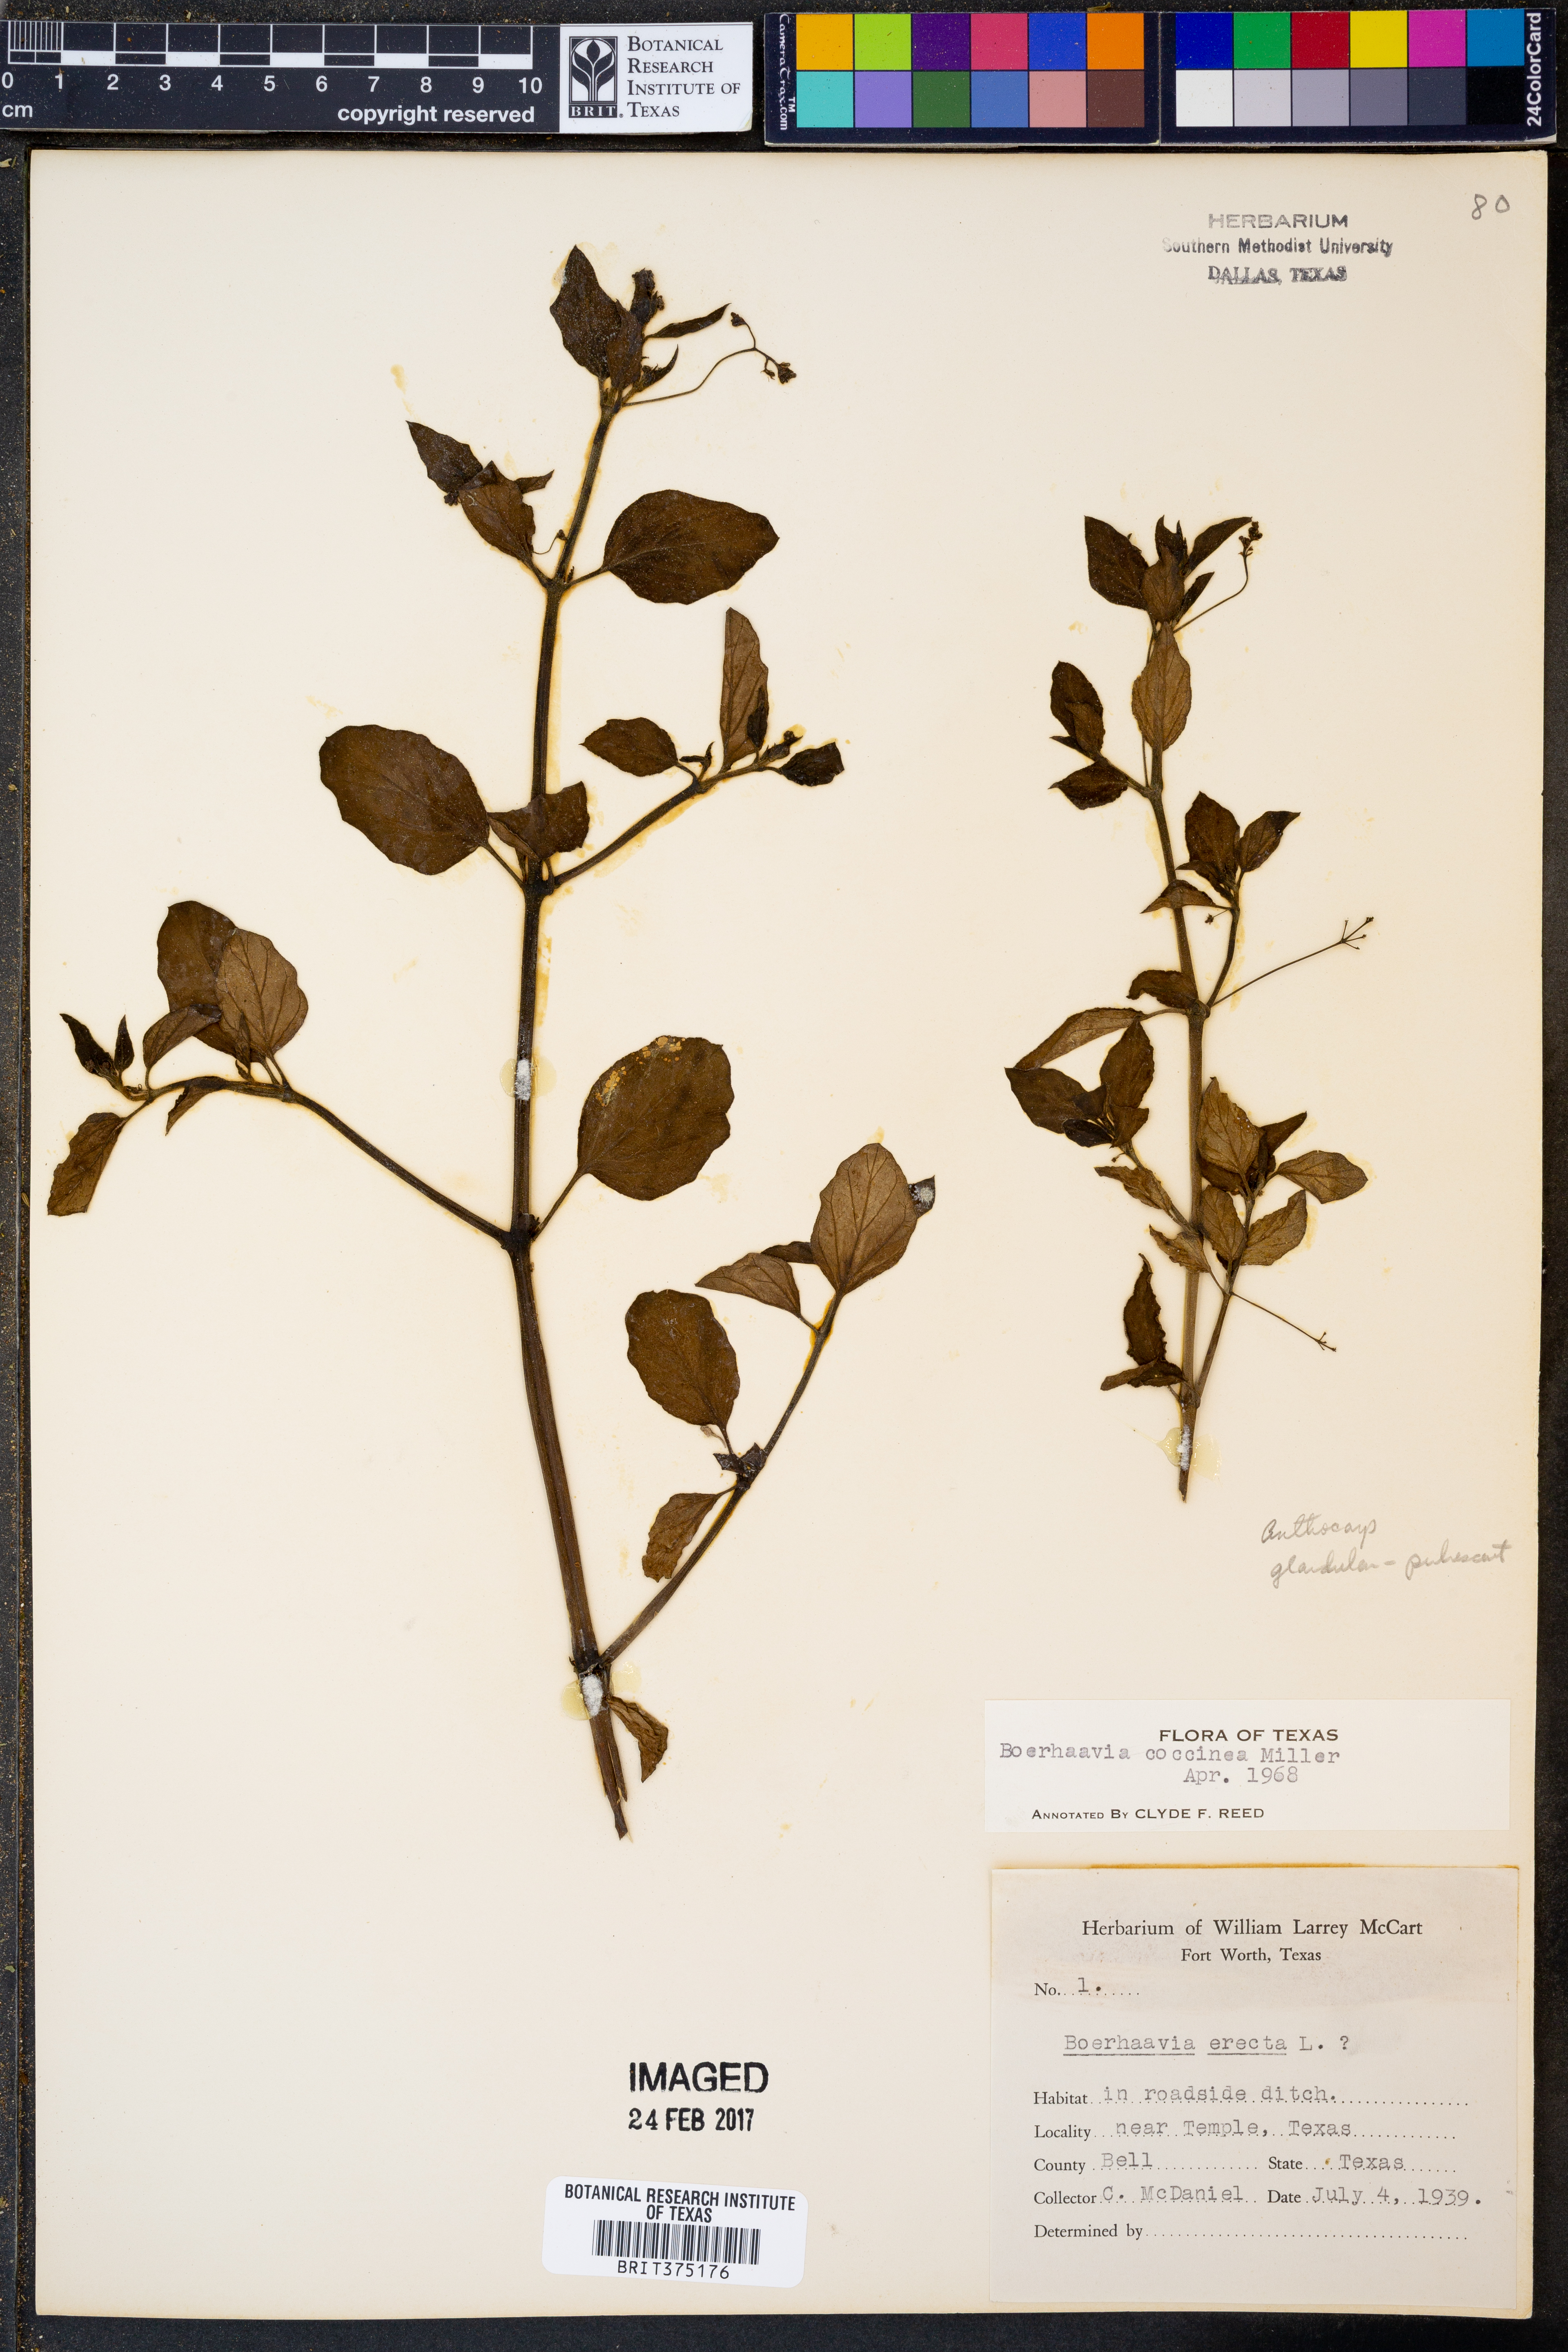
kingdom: Plantae
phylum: Tracheophyta
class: Magnoliopsida
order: Caryophyllales
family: Nyctaginaceae
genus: Boerhavia
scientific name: Boerhavia coccinea
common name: Scarlet spiderling
